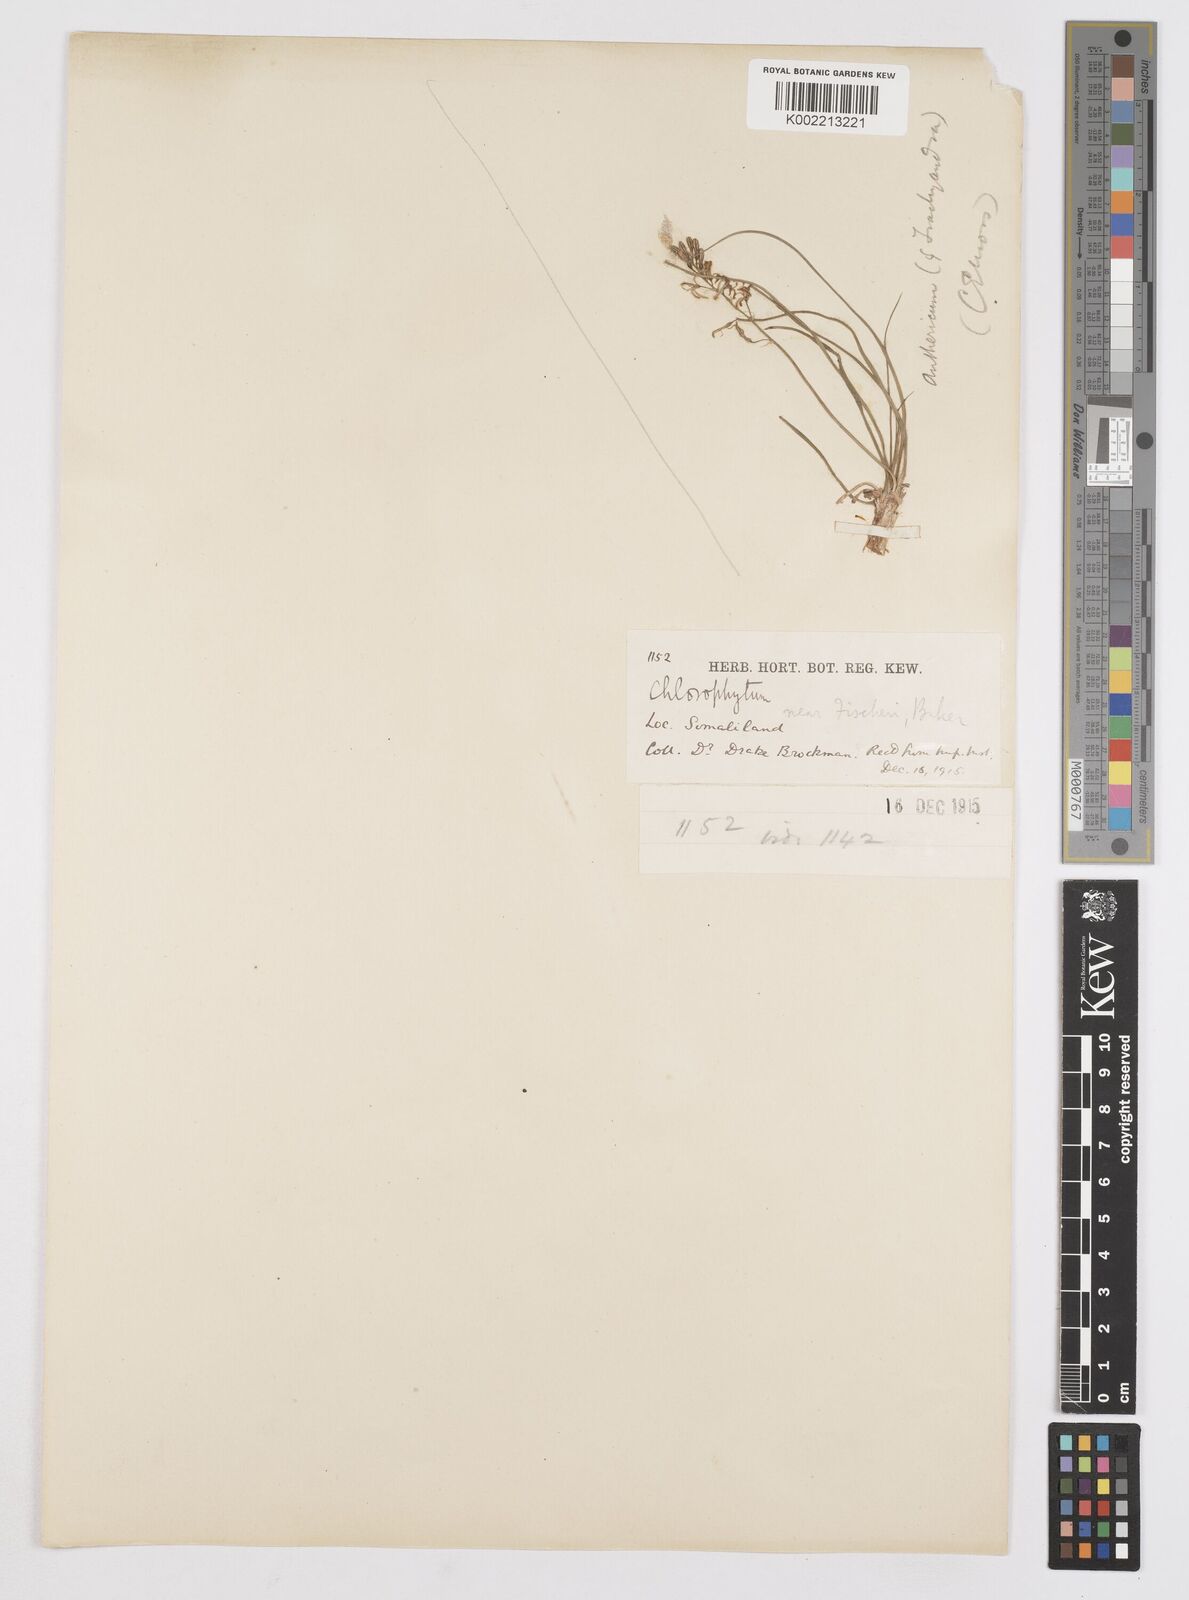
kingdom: Plantae
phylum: Tracheophyta
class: Liliopsida
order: Asparagales
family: Asphodelaceae
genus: Trachyandra
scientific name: Trachyandra saltii
